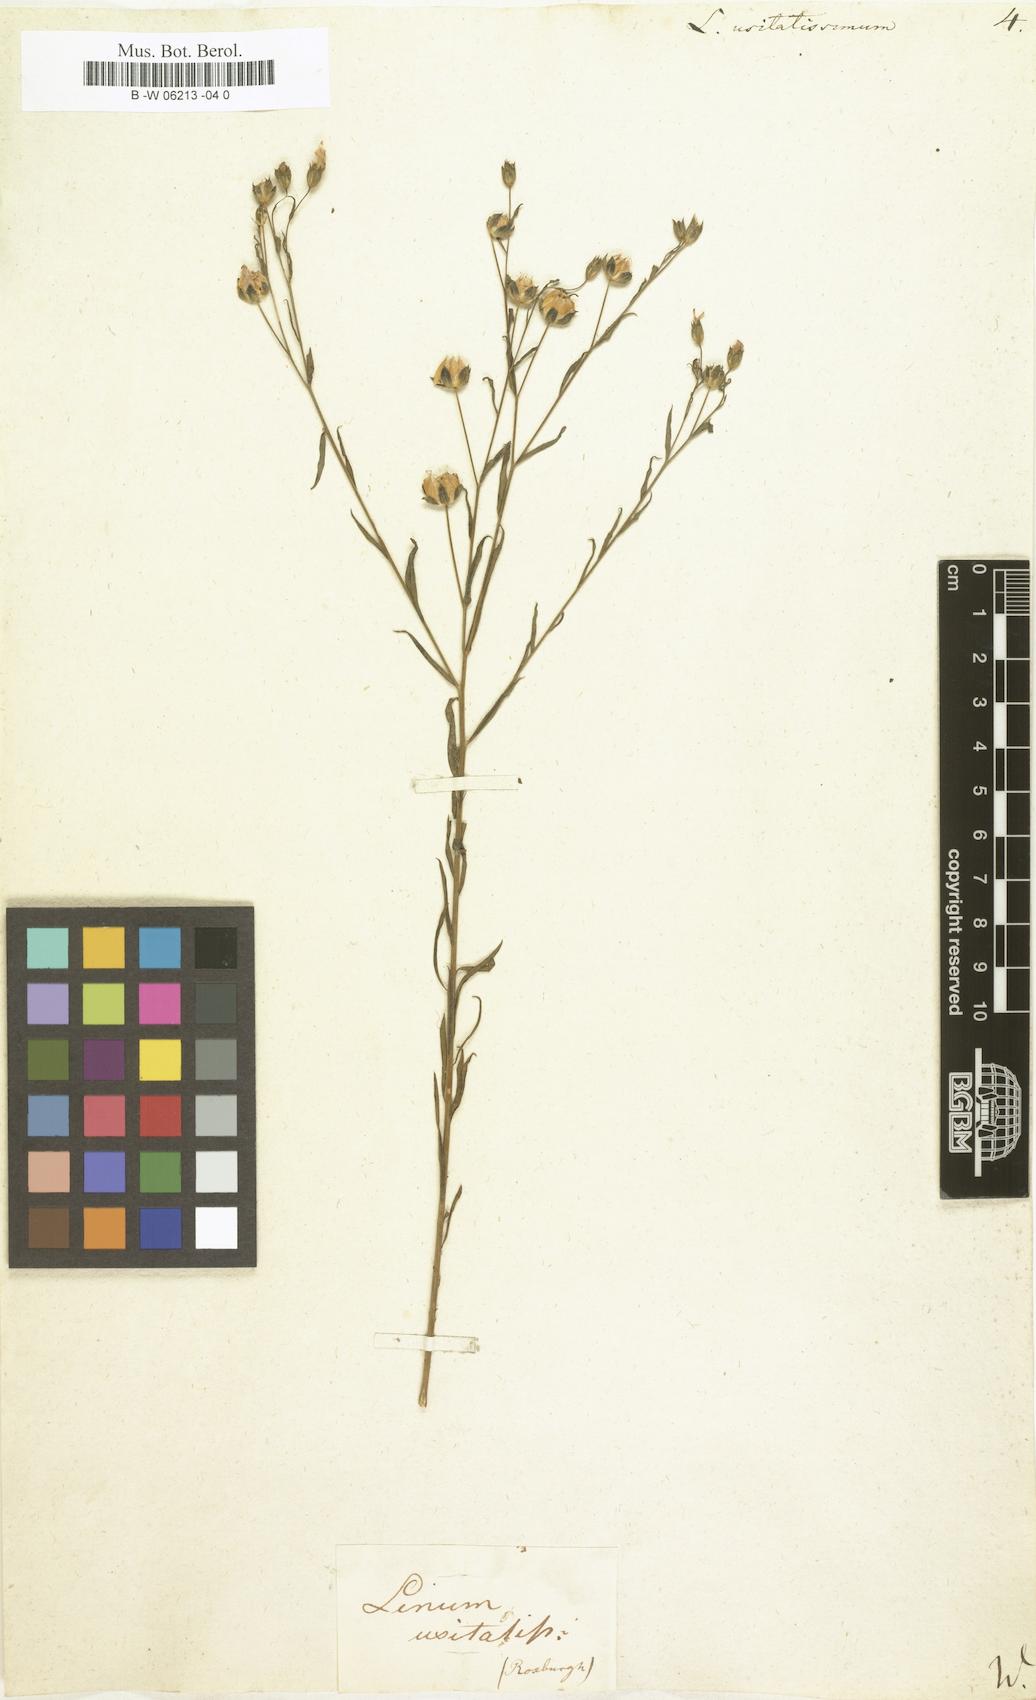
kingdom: Plantae
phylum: Tracheophyta
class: Magnoliopsida
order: Malpighiales
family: Linaceae
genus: Linum
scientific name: Linum usitatissimum
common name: Flax
